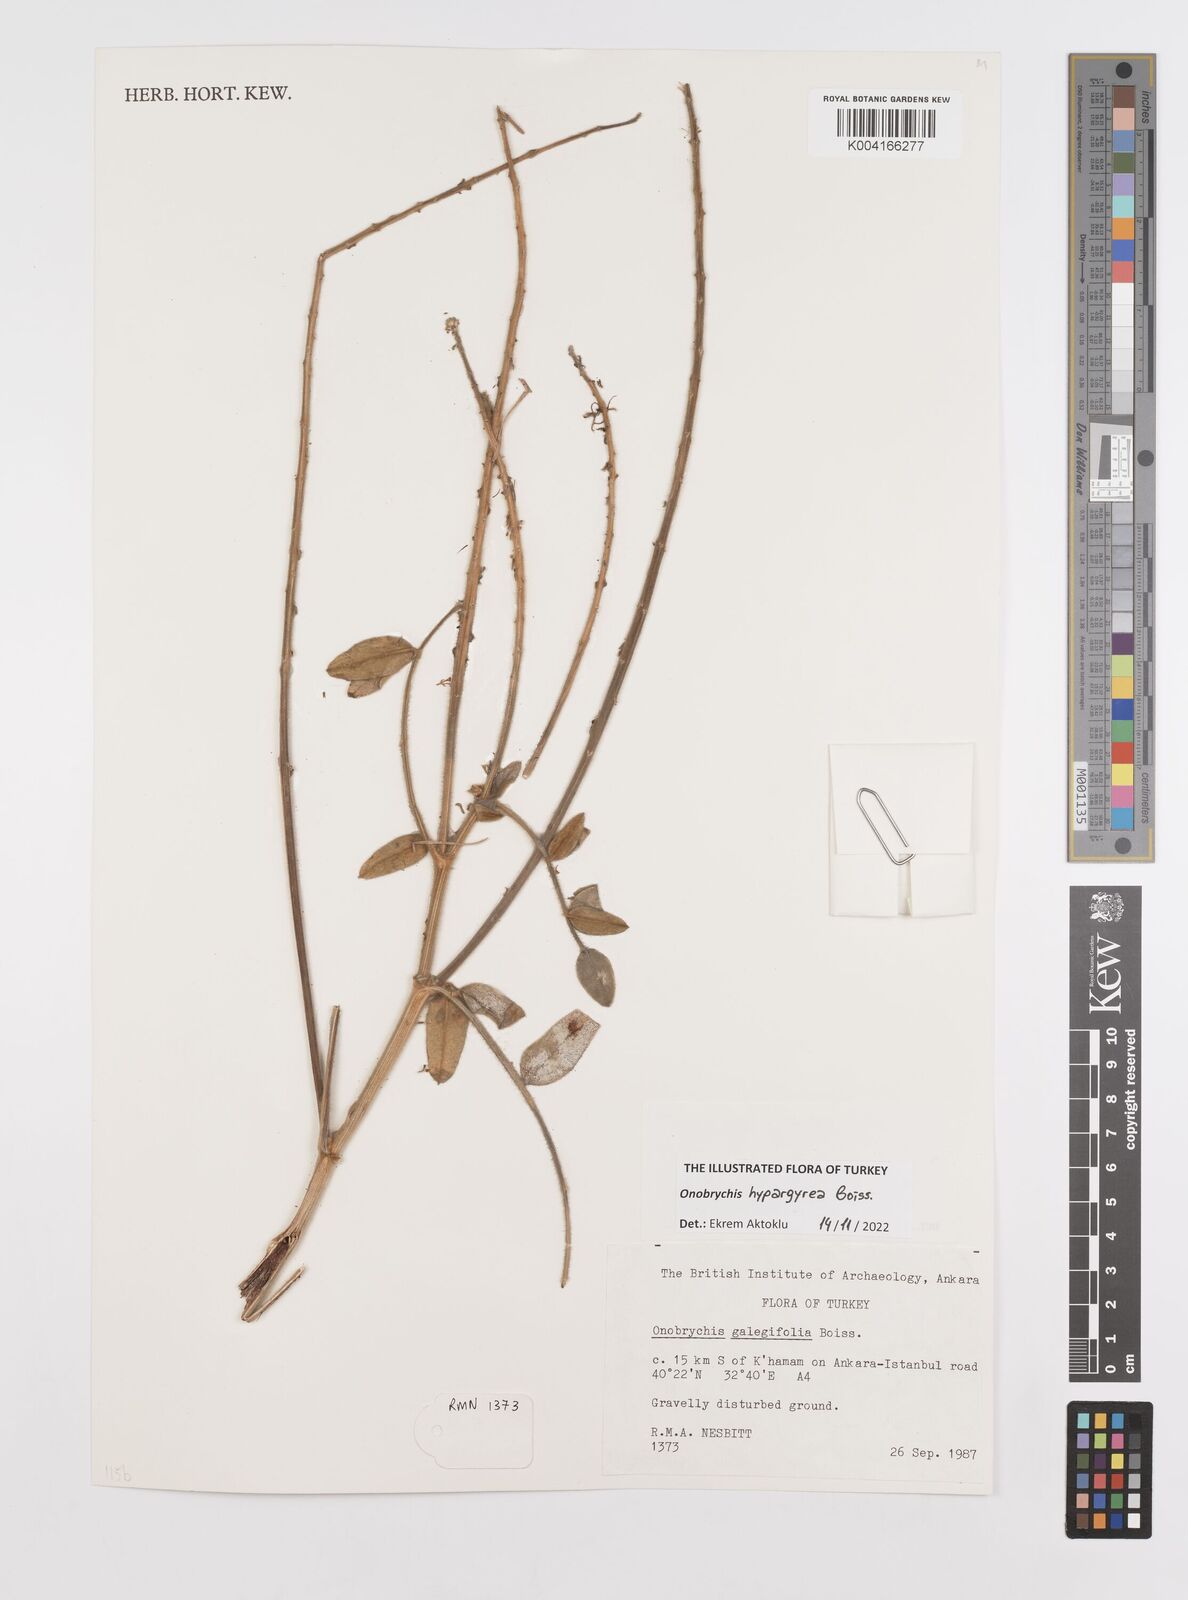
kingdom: Plantae
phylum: Tracheophyta
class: Magnoliopsida
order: Fabales
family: Fabaceae
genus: Onobrychis
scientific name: Onobrychis hypargyrea
